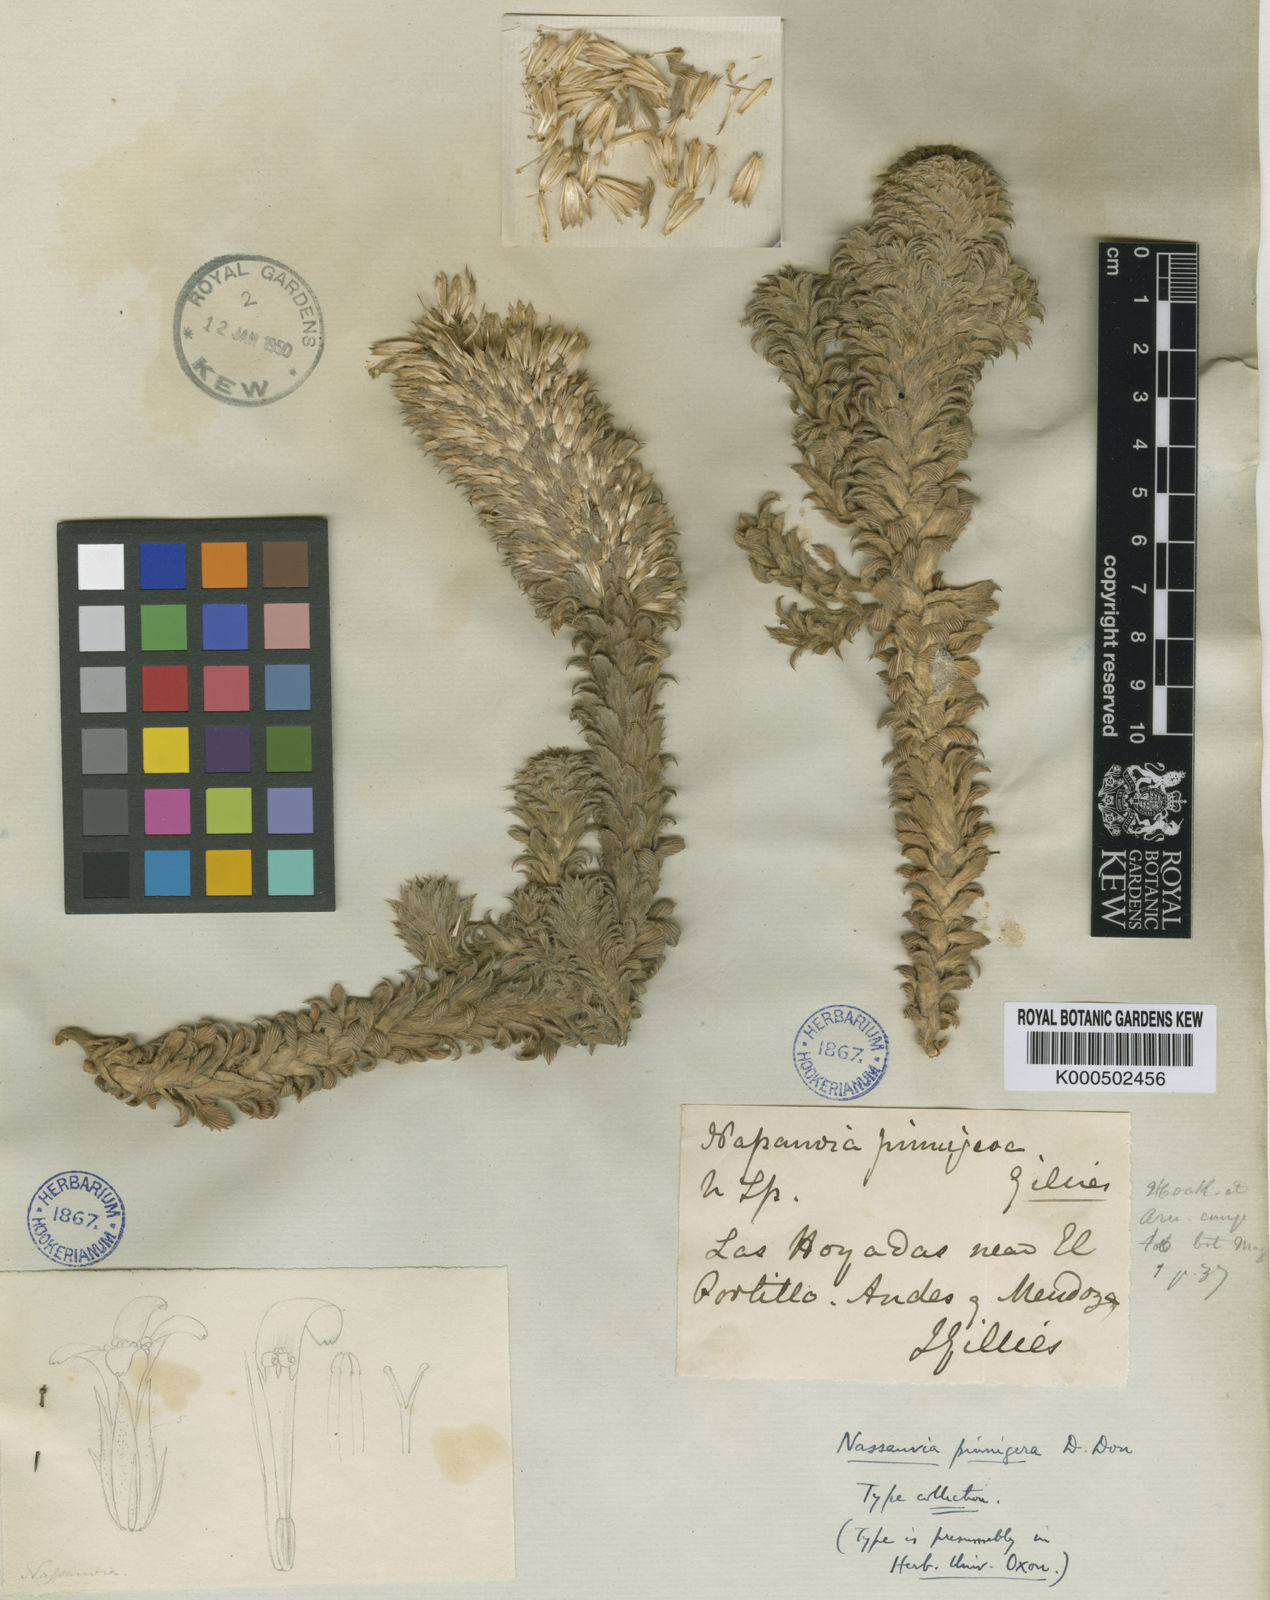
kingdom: Plantae
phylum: Tracheophyta
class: Magnoliopsida
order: Asterales
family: Asteraceae
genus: Nassauvia
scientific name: Nassauvia pinnigera
